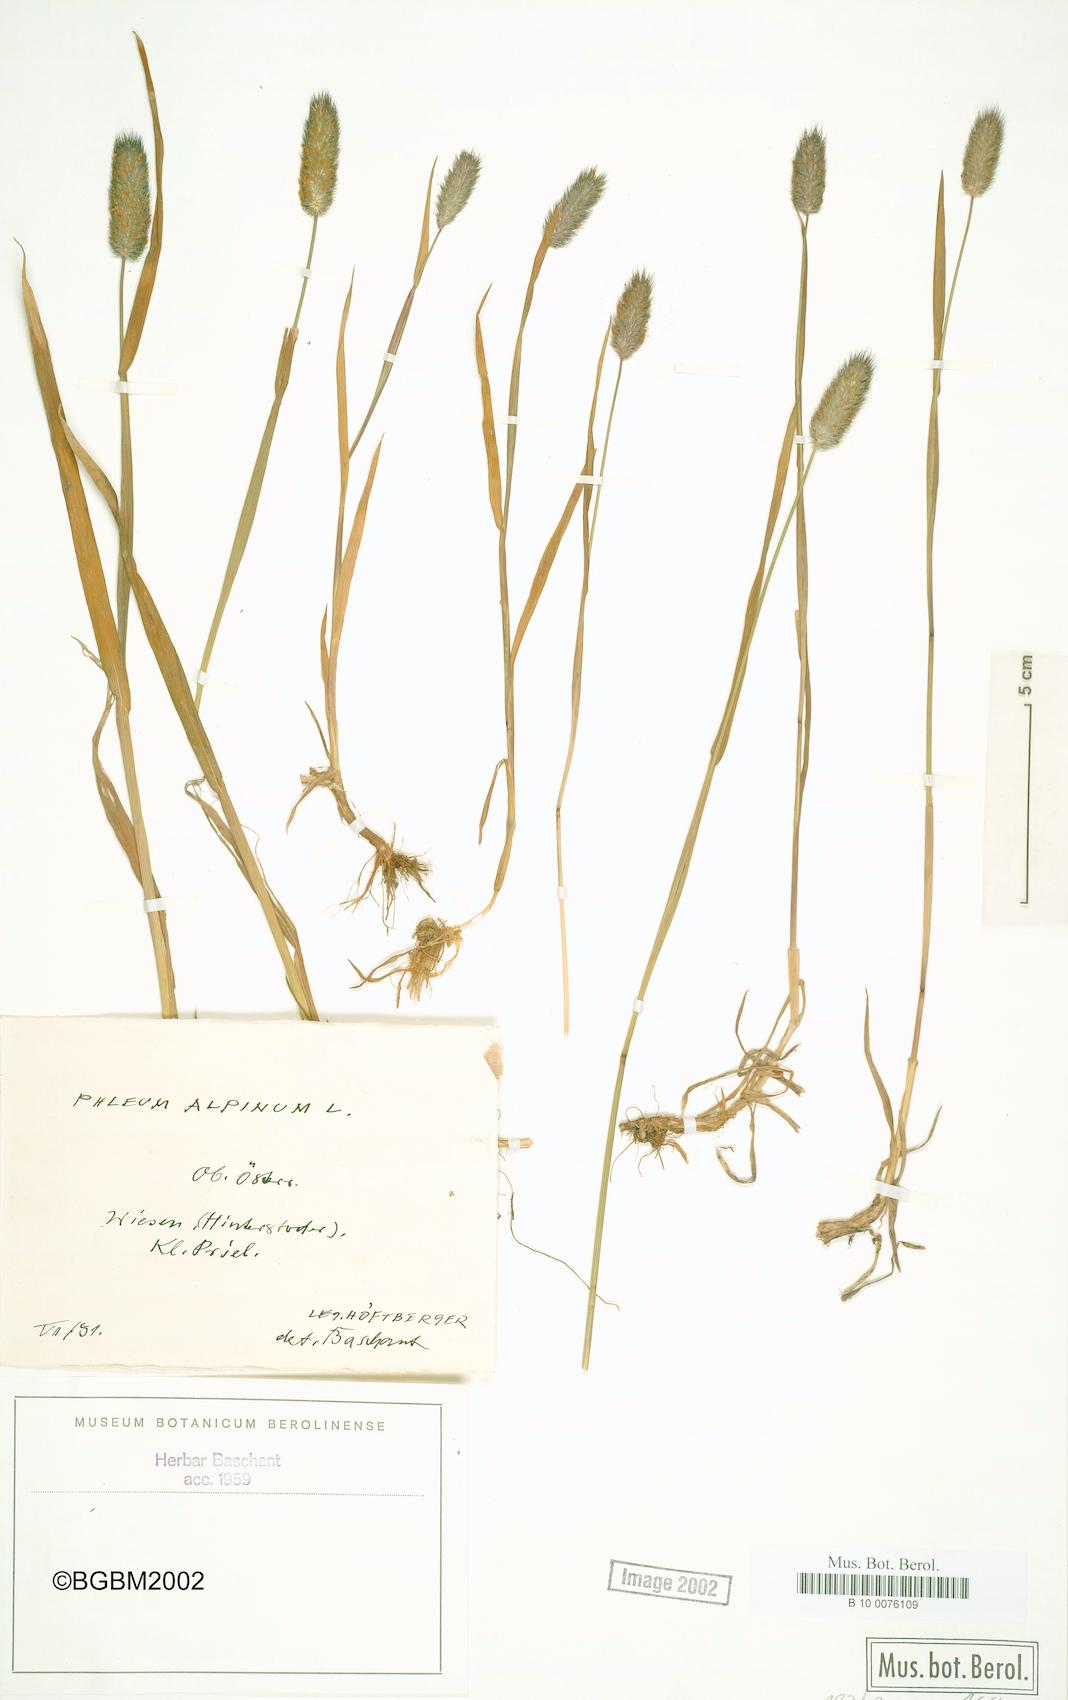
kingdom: Plantae
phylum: Tracheophyta
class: Liliopsida
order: Poales
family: Poaceae
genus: Phleum
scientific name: Phleum alpinum
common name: Alpine cat's-tail
